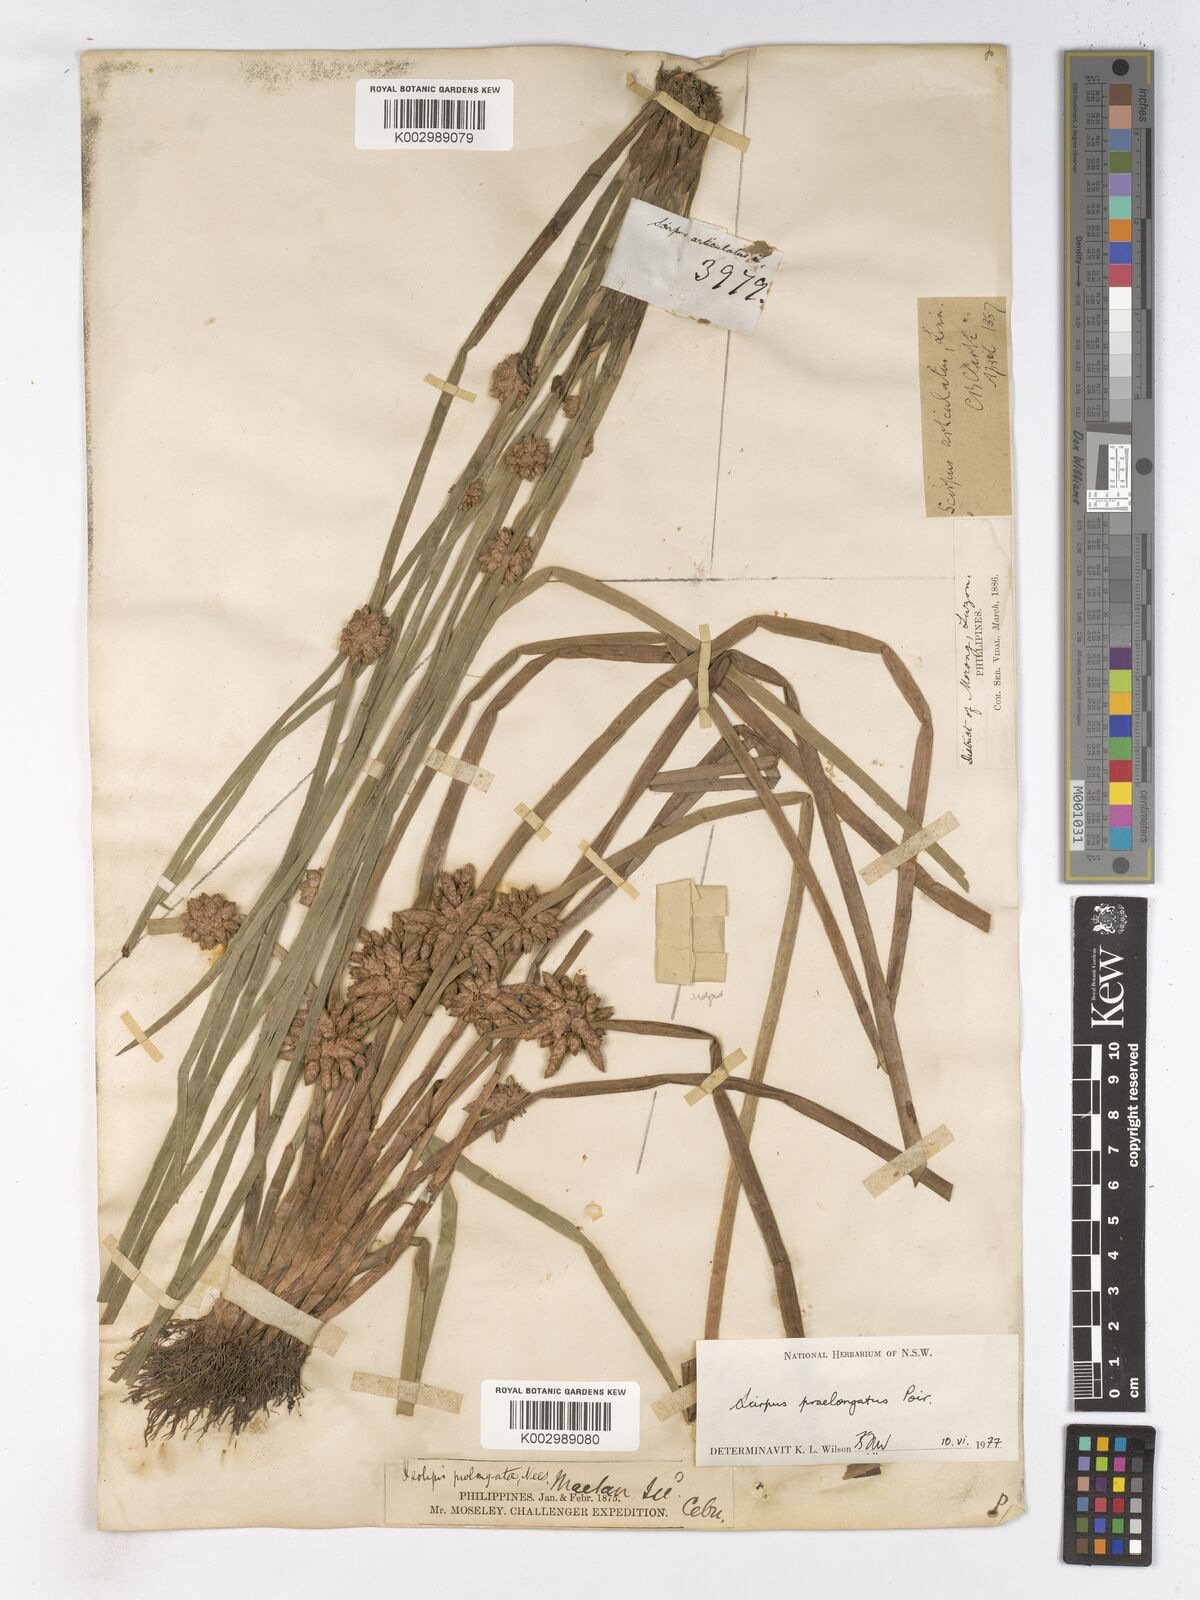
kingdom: Plantae
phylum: Tracheophyta
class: Liliopsida
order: Poales
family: Cyperaceae
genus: Schoenoplectiella
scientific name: Schoenoplectiella praelongata
